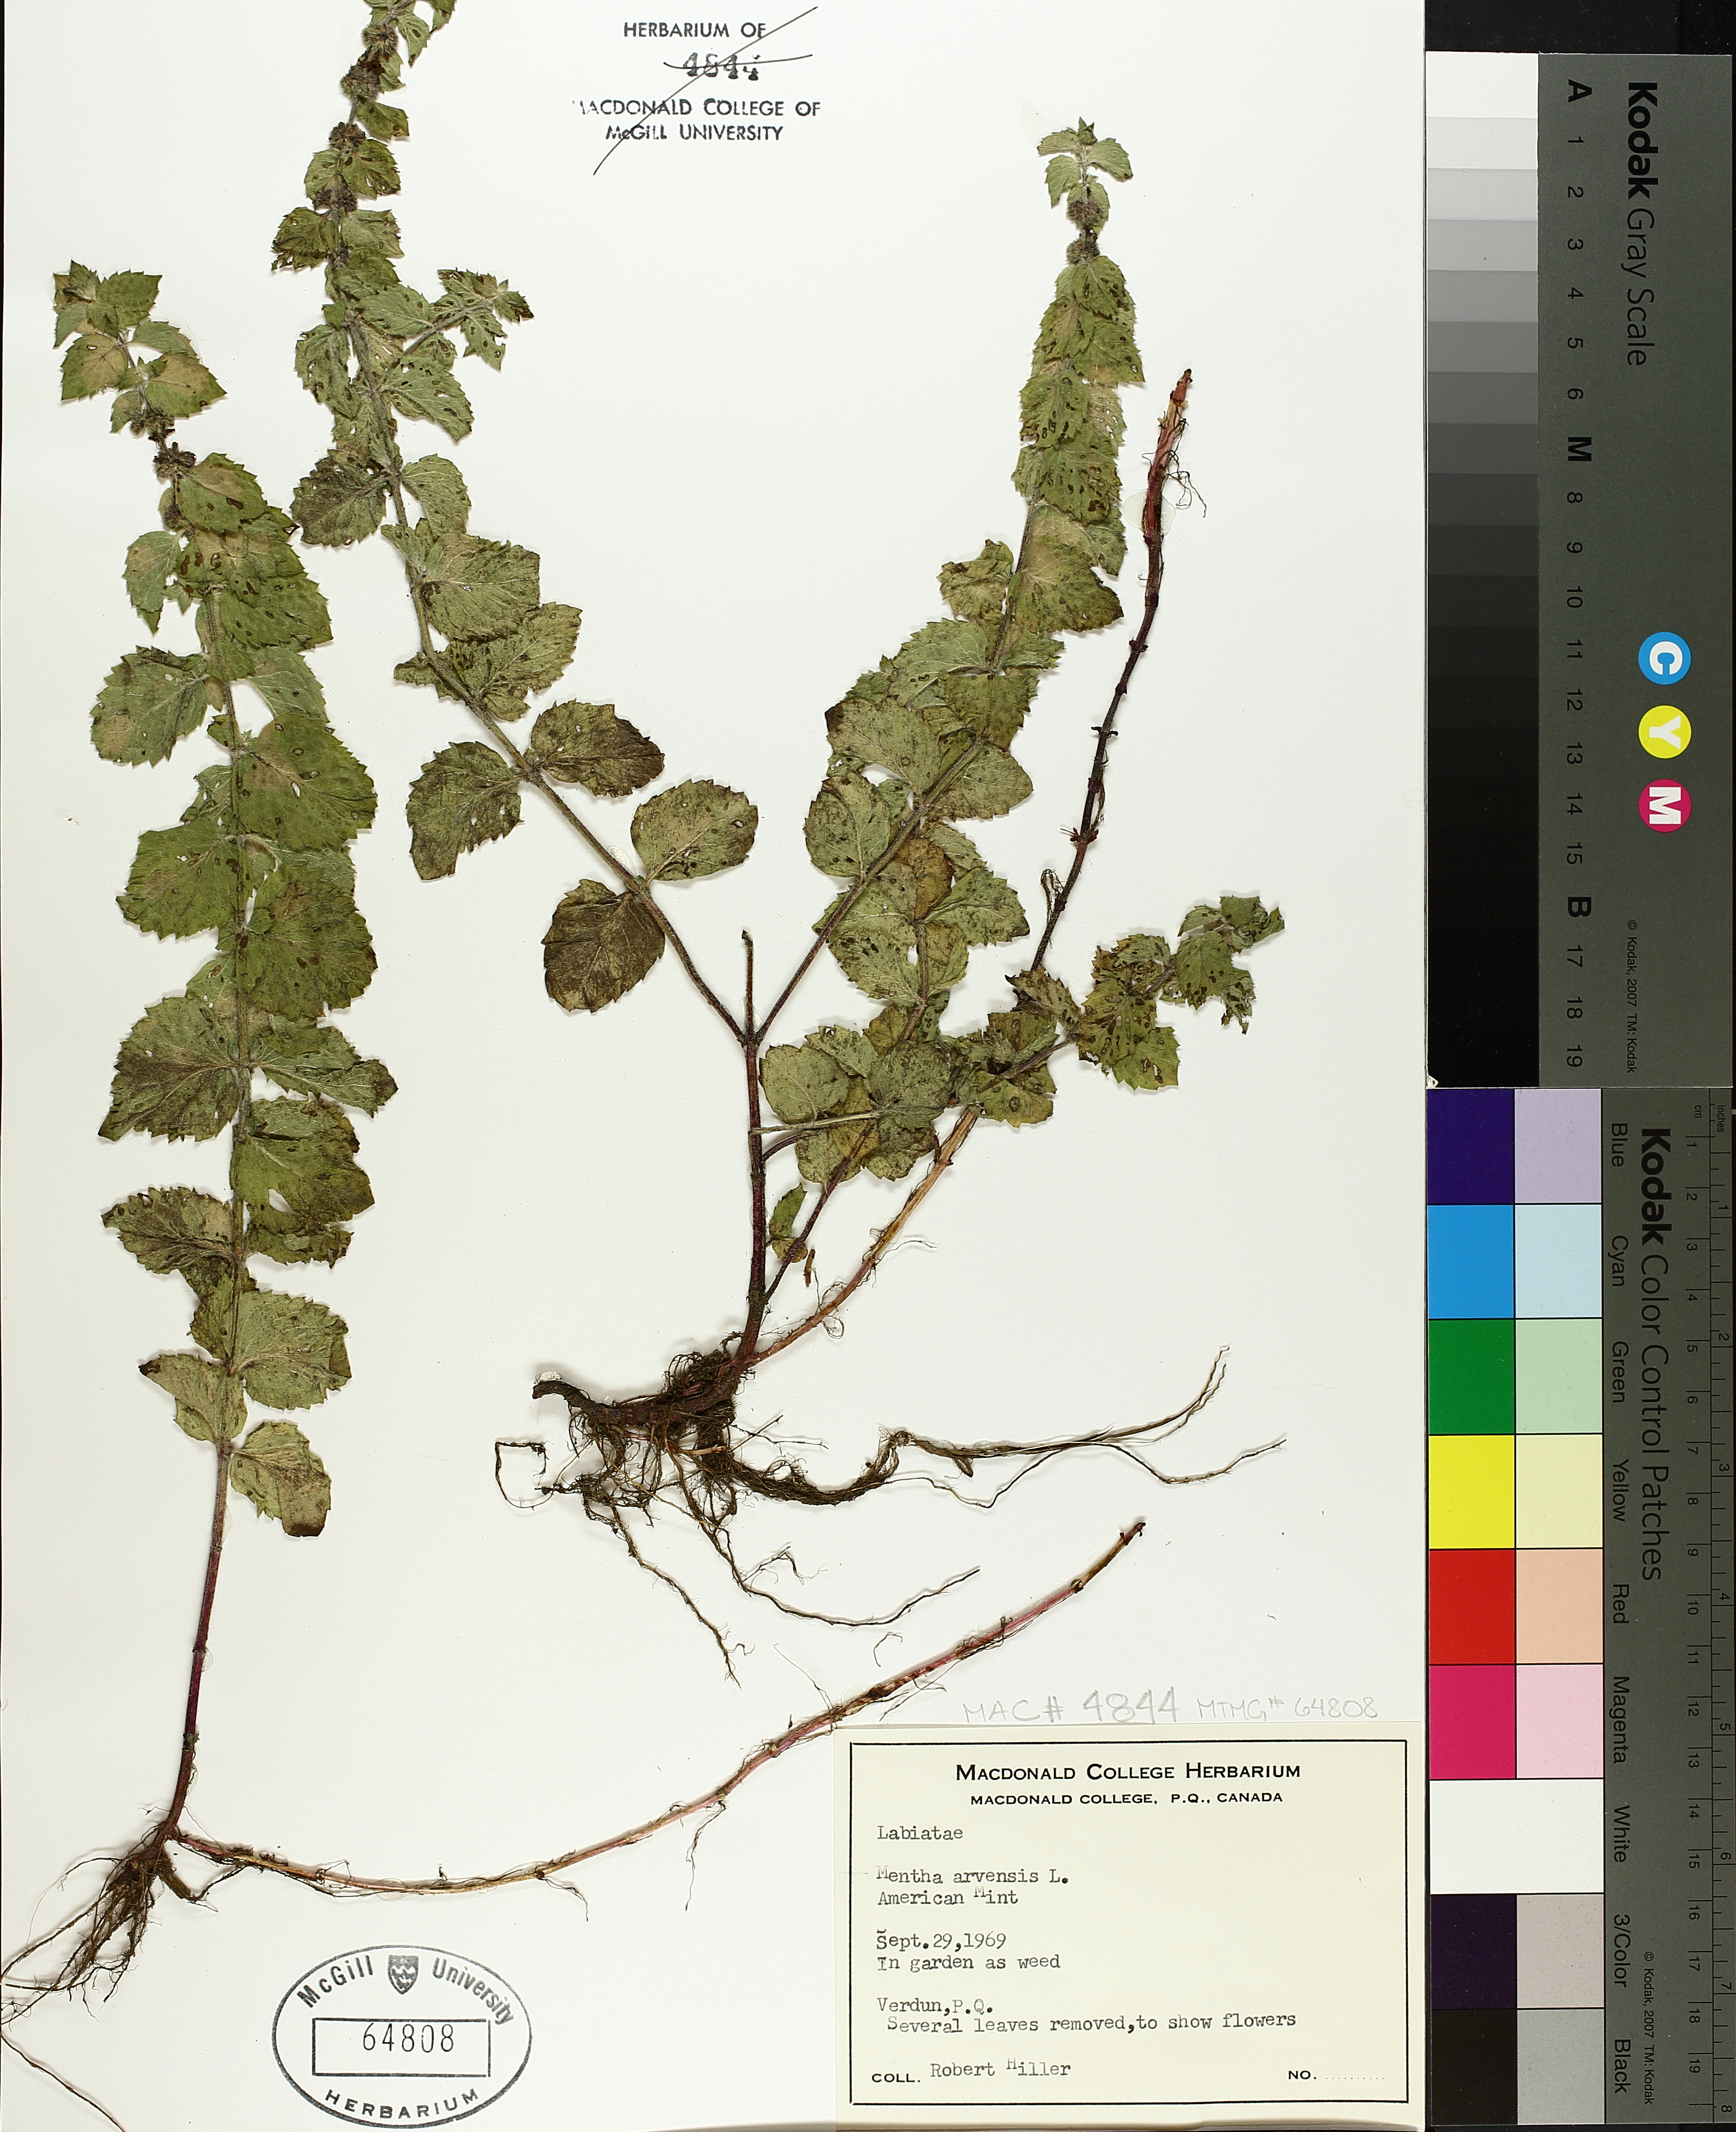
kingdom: Plantae
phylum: Tracheophyta
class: Magnoliopsida
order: Lamiales
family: Lamiaceae
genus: Mentha
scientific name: Mentha arvensis
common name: Corn mint
